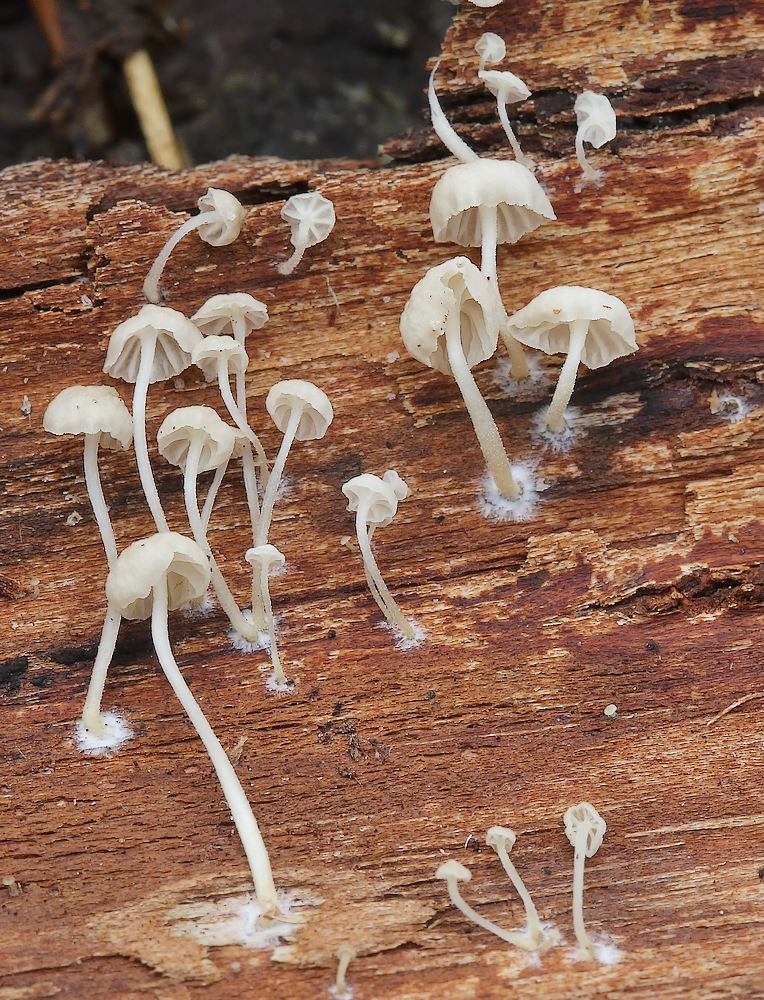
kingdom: Fungi
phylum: Basidiomycota
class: Agaricomycetes
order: Agaricales
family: Porotheleaceae
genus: Phloeomana
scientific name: Phloeomana speirea
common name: kvist-huesvamp
